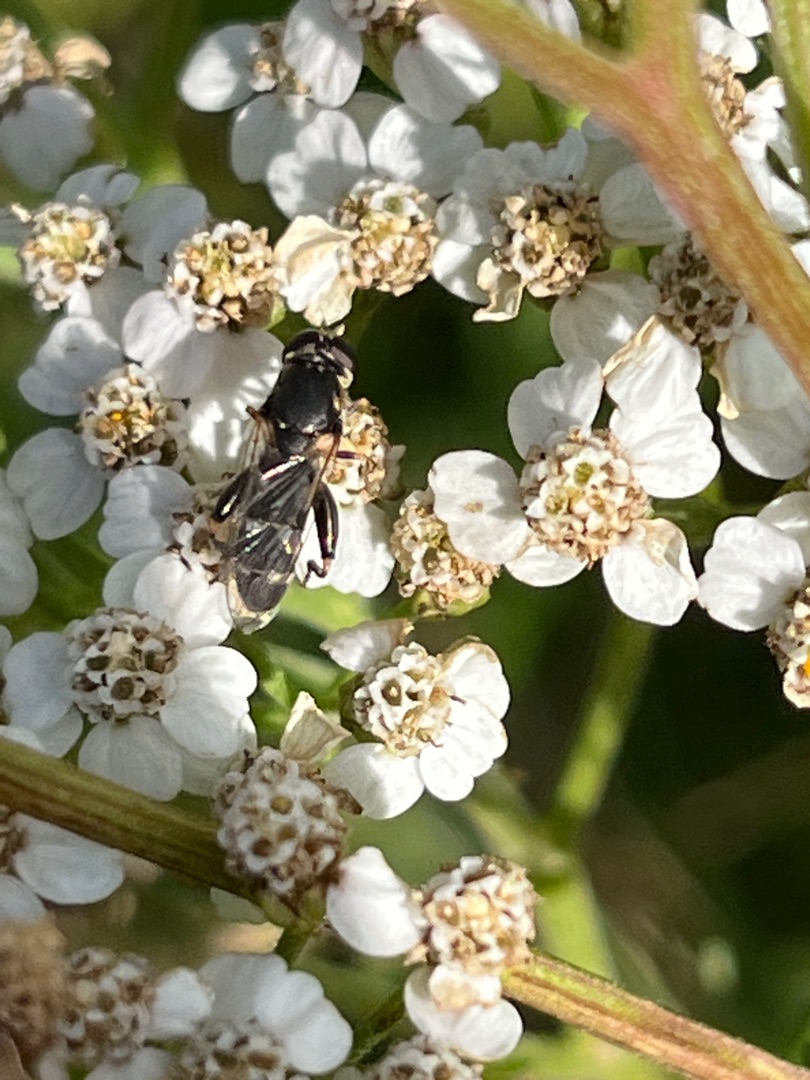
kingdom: Animalia
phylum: Arthropoda
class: Insecta
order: Diptera
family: Syrphidae
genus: Syritta
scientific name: Syritta pipiens
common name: Kompost-svirreflue
